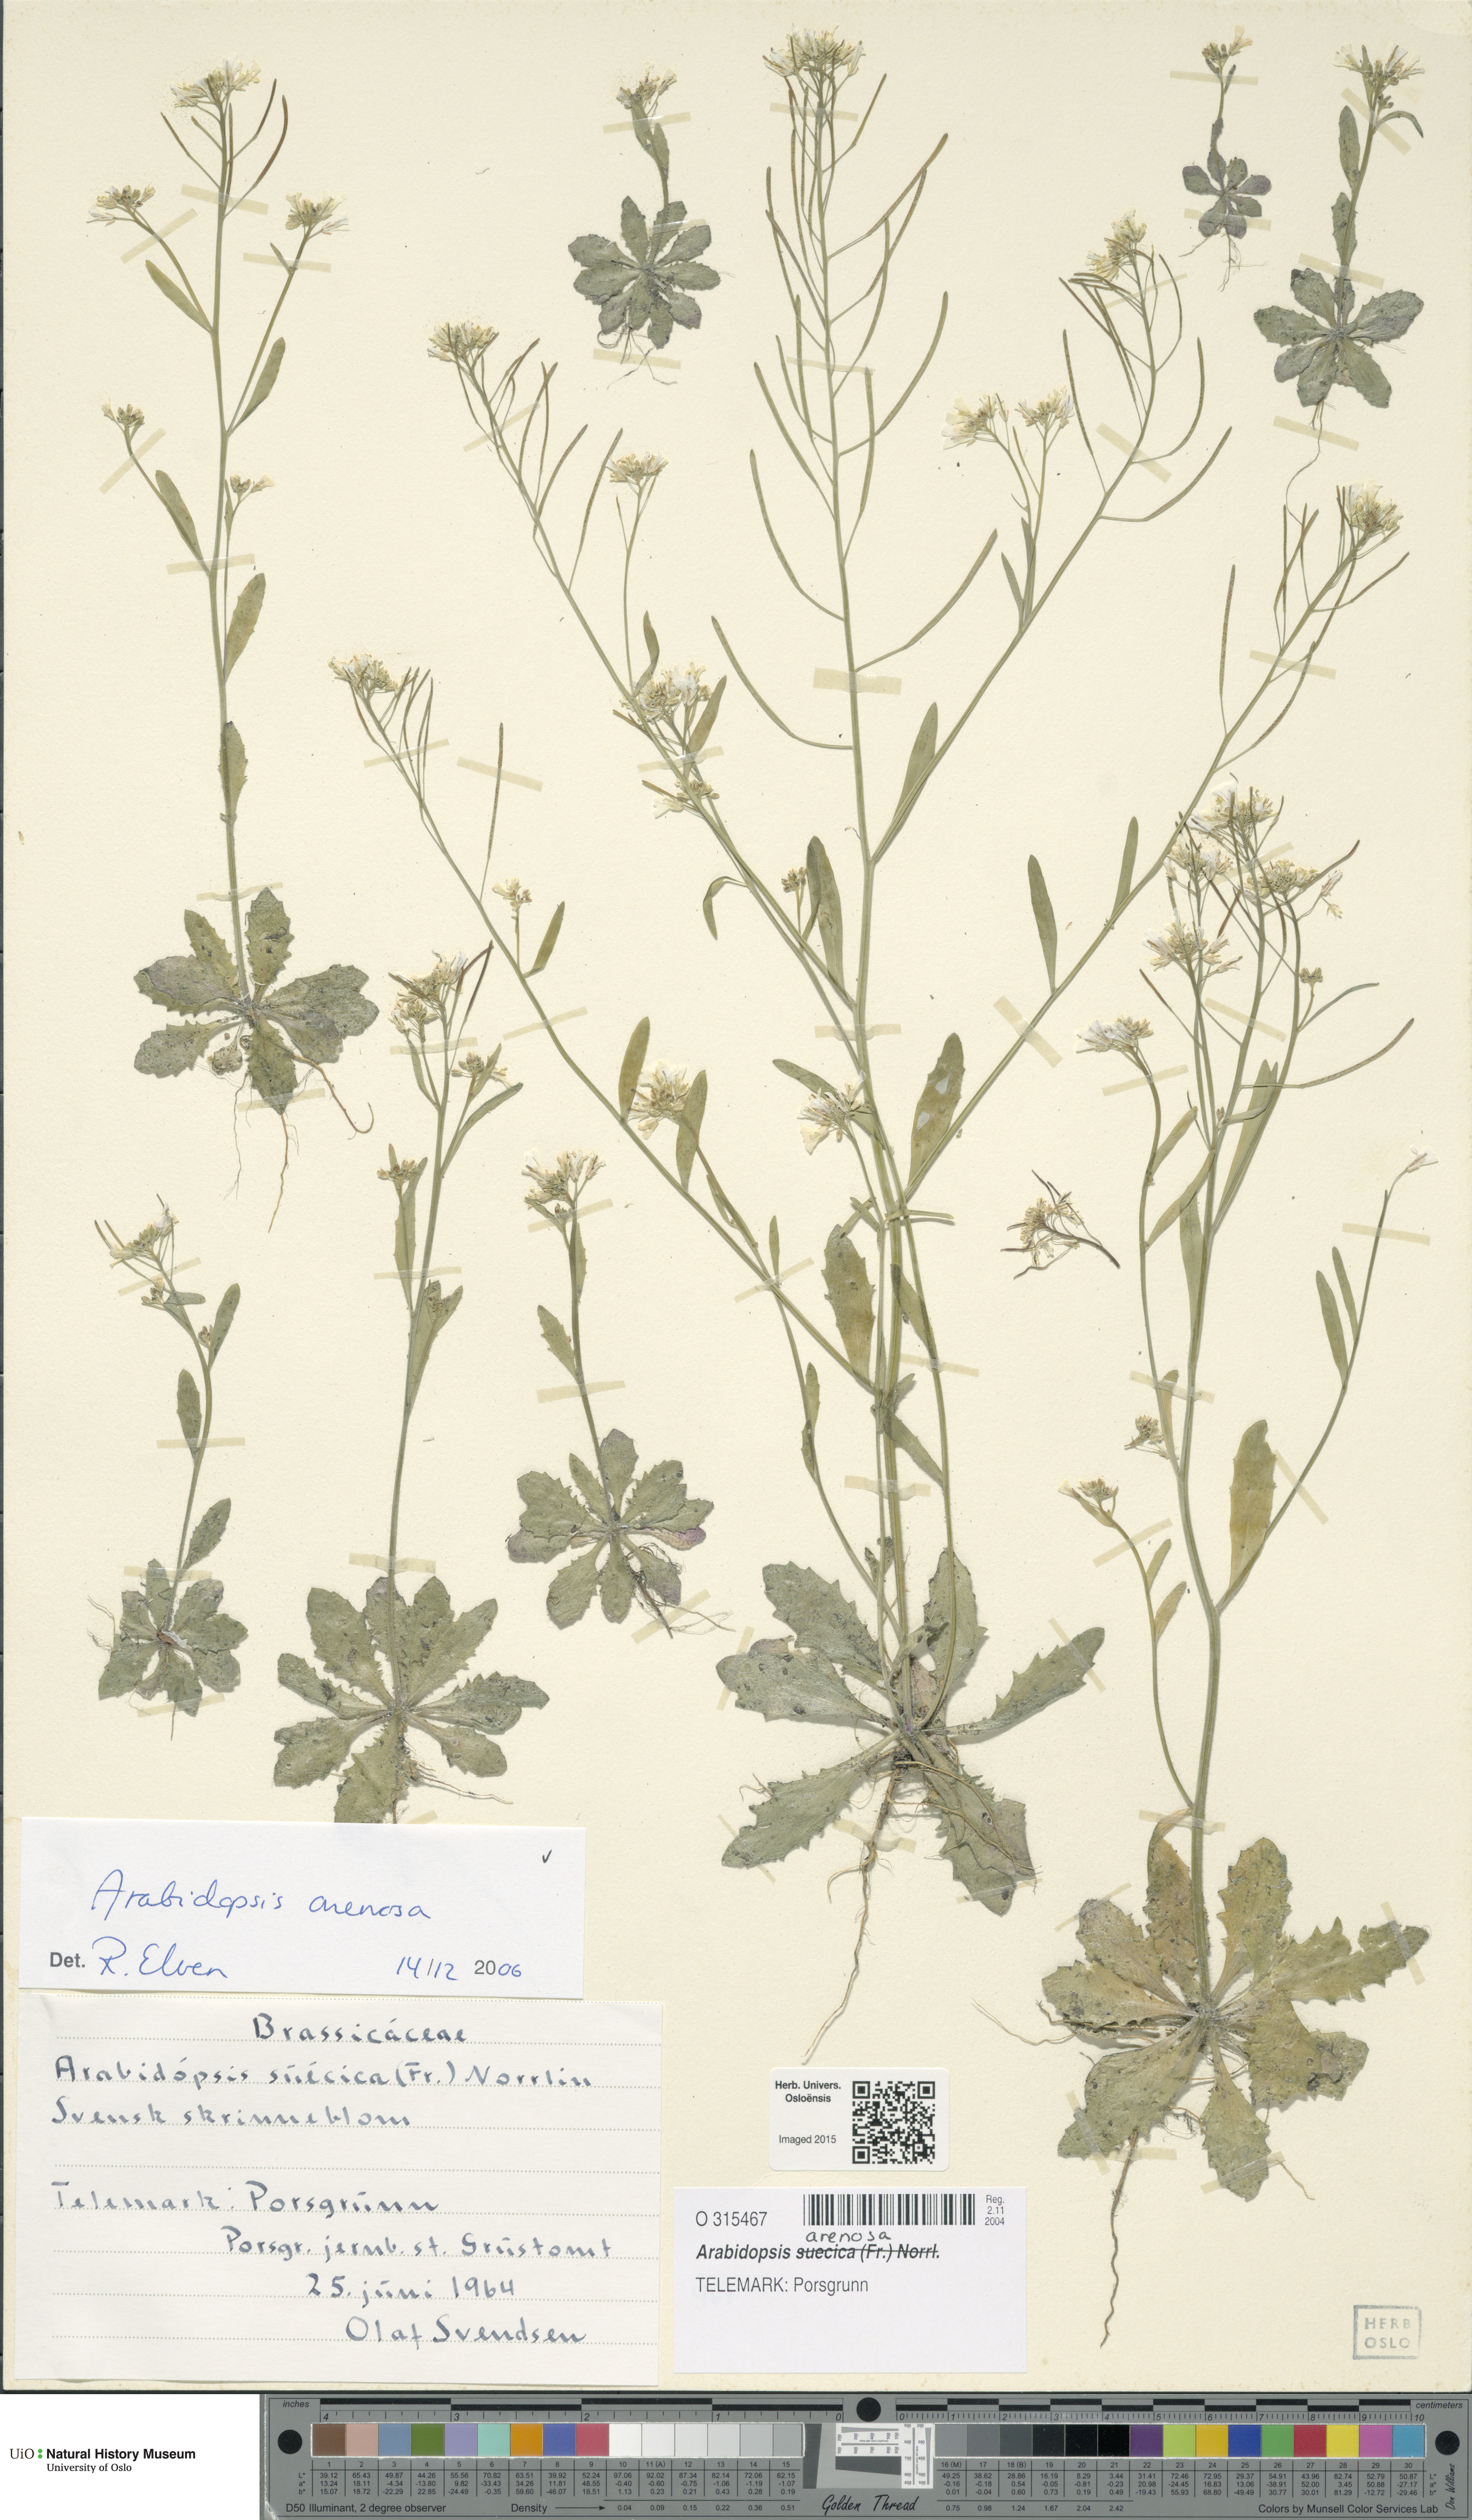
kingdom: Plantae
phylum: Tracheophyta
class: Magnoliopsida
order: Brassicales
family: Brassicaceae
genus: Arabidopsis
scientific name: Arabidopsis arenosa
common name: Sand rock-cress
